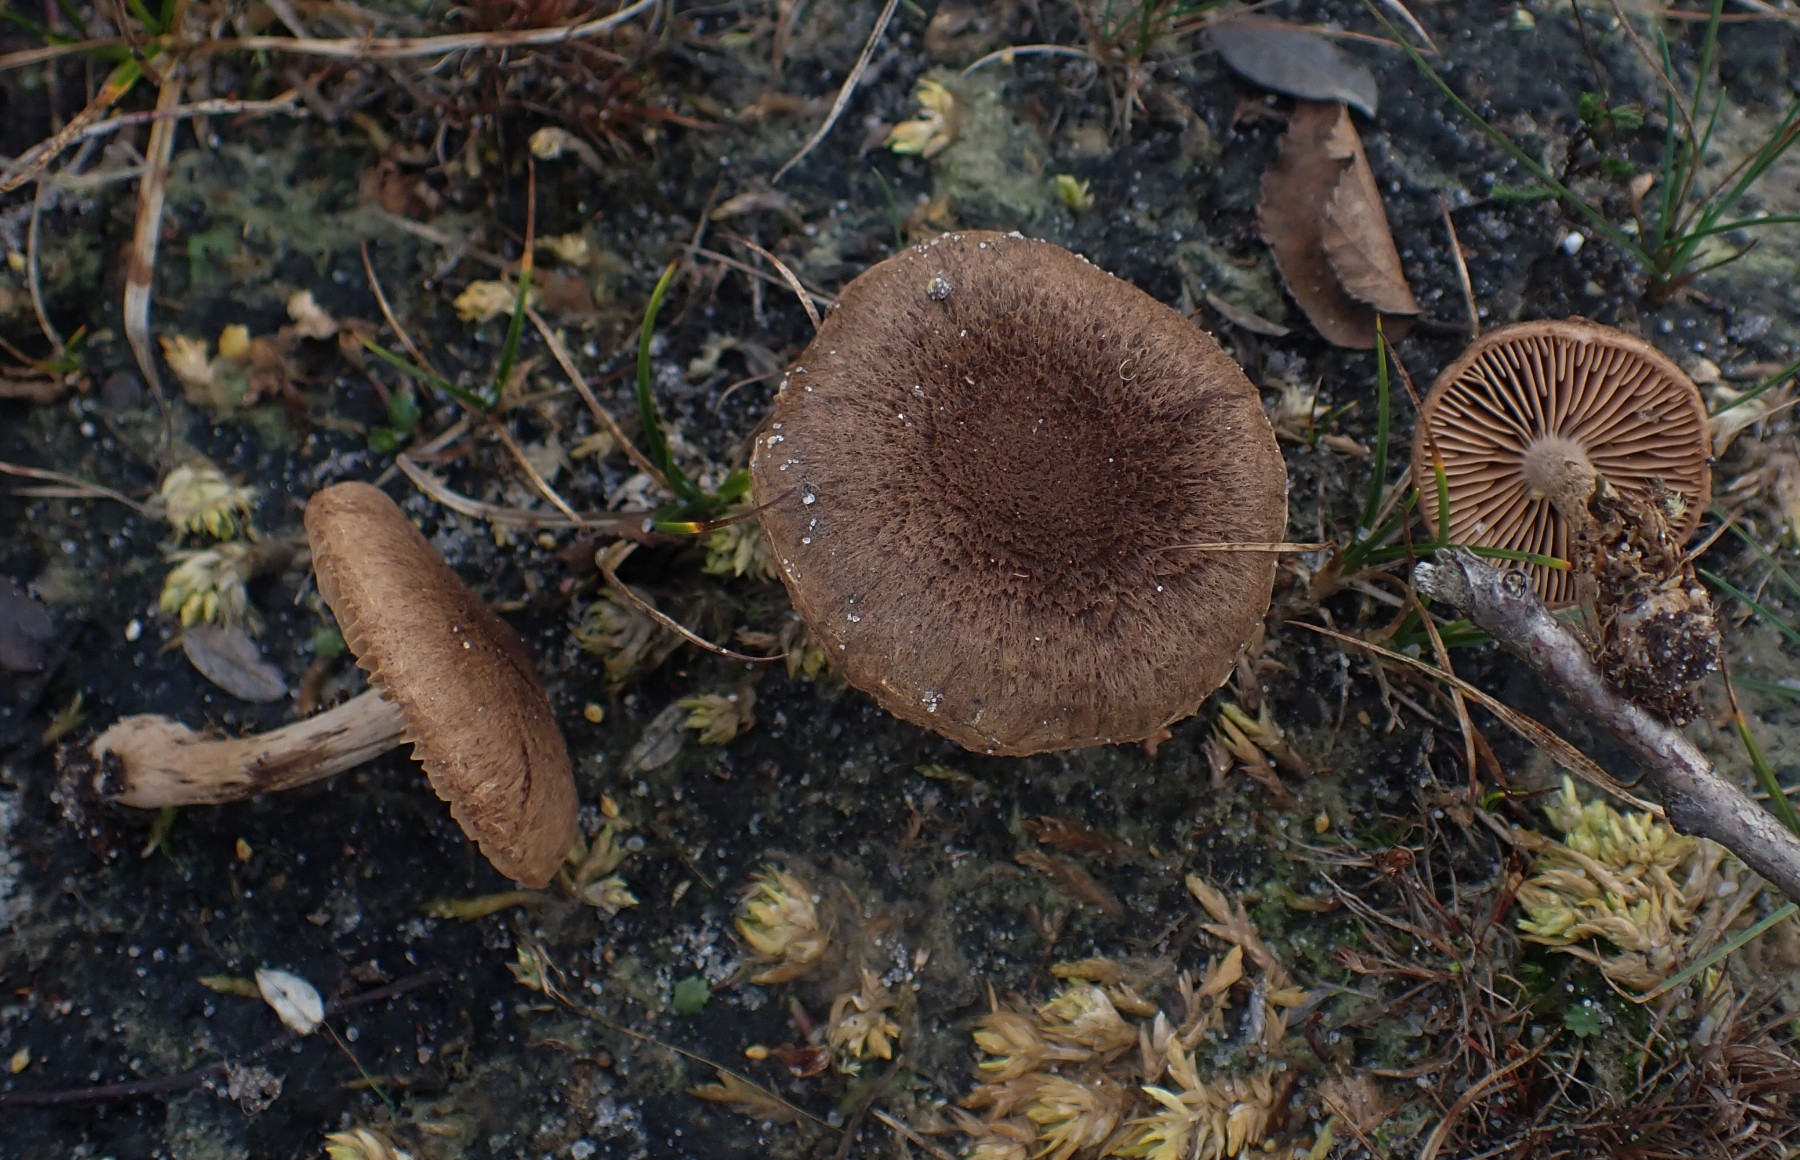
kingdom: Fungi
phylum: Basidiomycota
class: Agaricomycetes
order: Agaricales
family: Inocybaceae
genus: Inocybe
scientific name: Inocybe lacera
